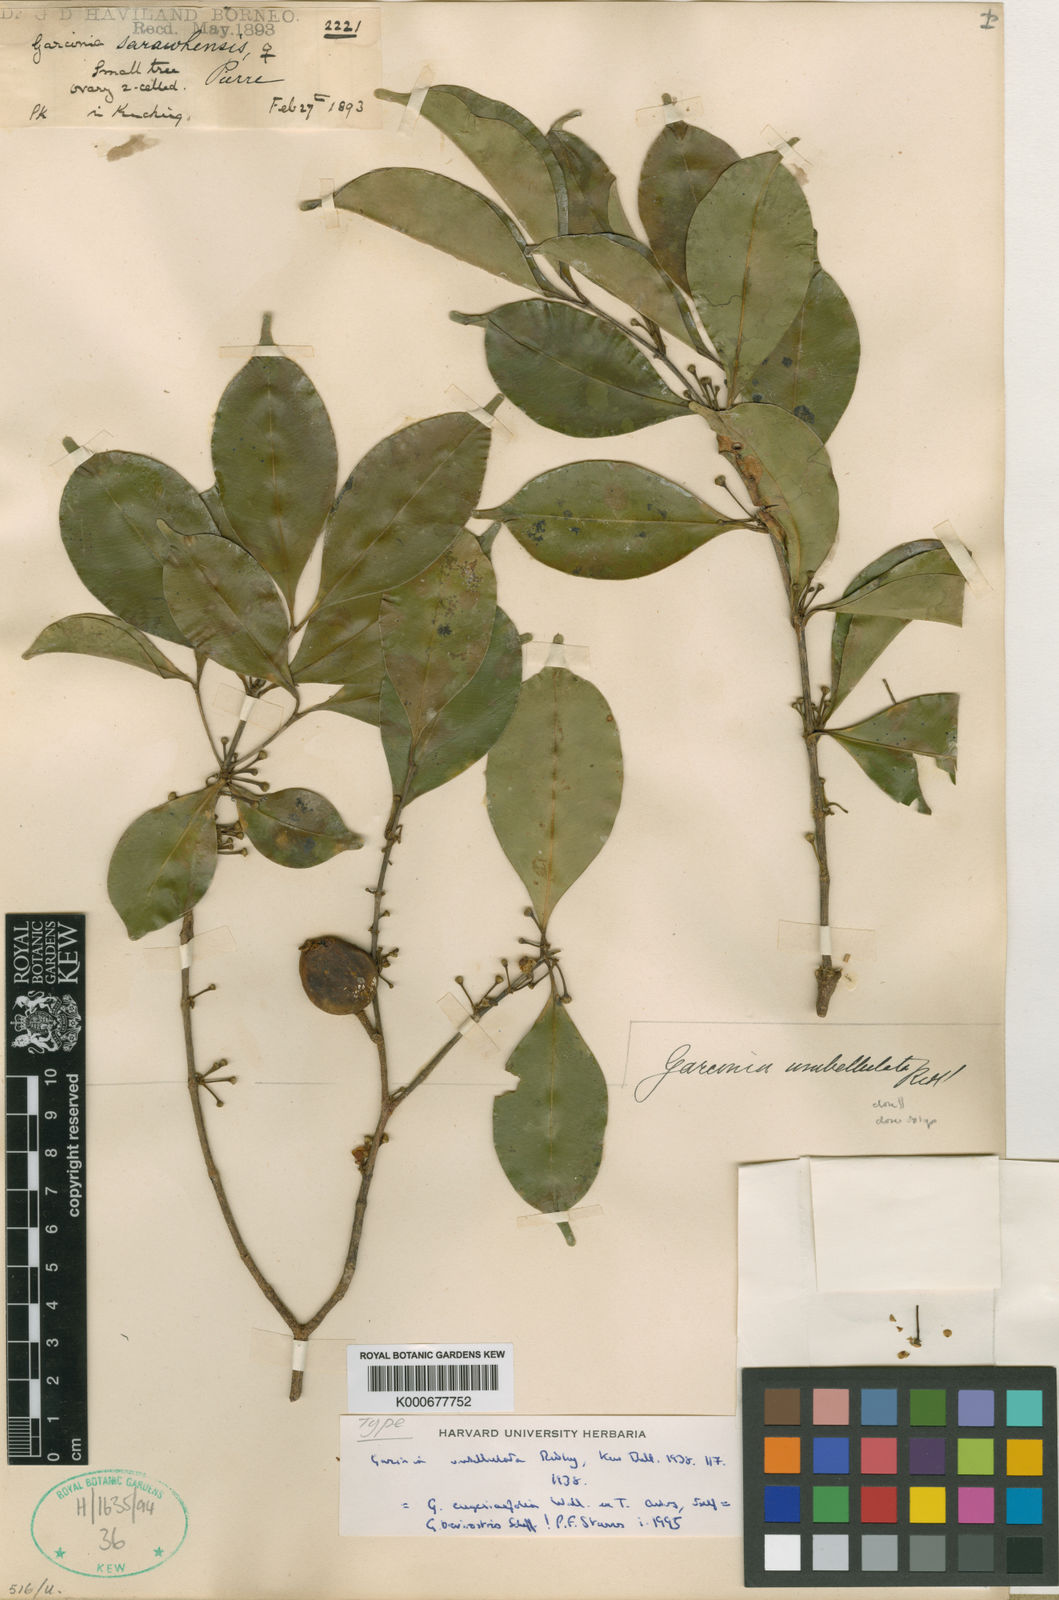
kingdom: Plantae
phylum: Tracheophyta
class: Magnoliopsida
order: Malpighiales
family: Clusiaceae
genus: Garcinia
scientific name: Garcinia umbellulata
